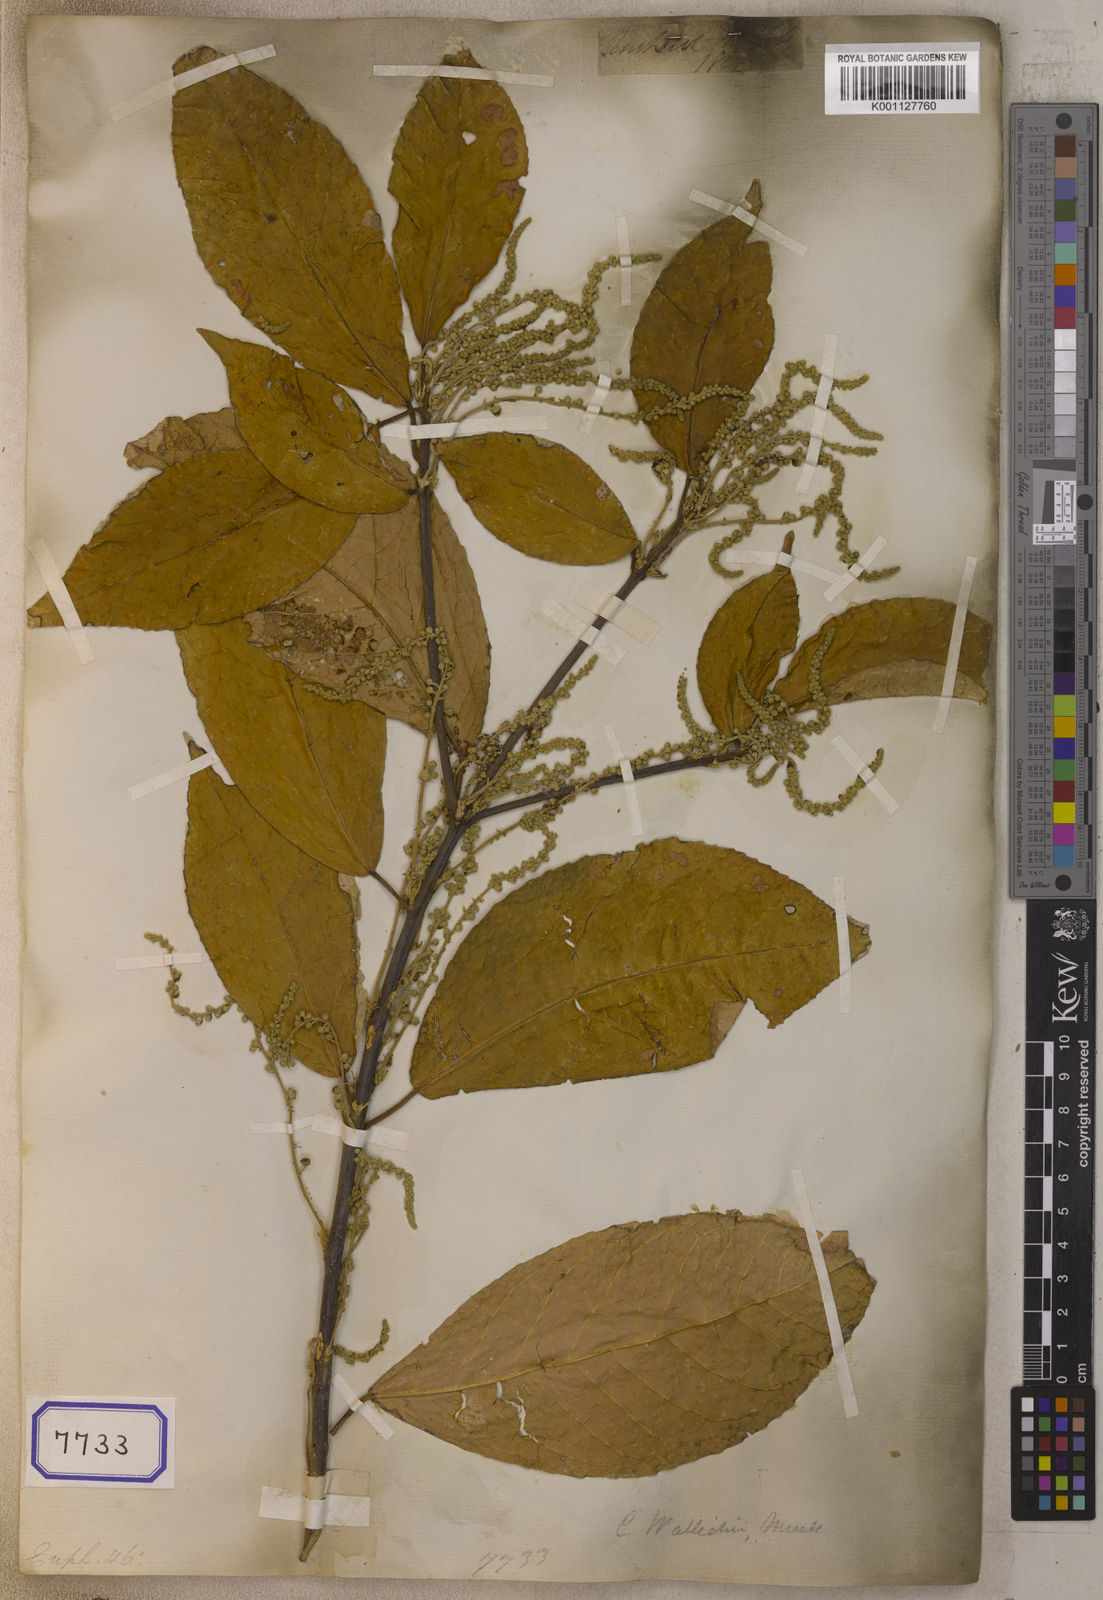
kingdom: Plantae
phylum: Tracheophyta
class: Magnoliopsida
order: Malpighiales
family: Euphorbiaceae
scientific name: Euphorbiaceae
